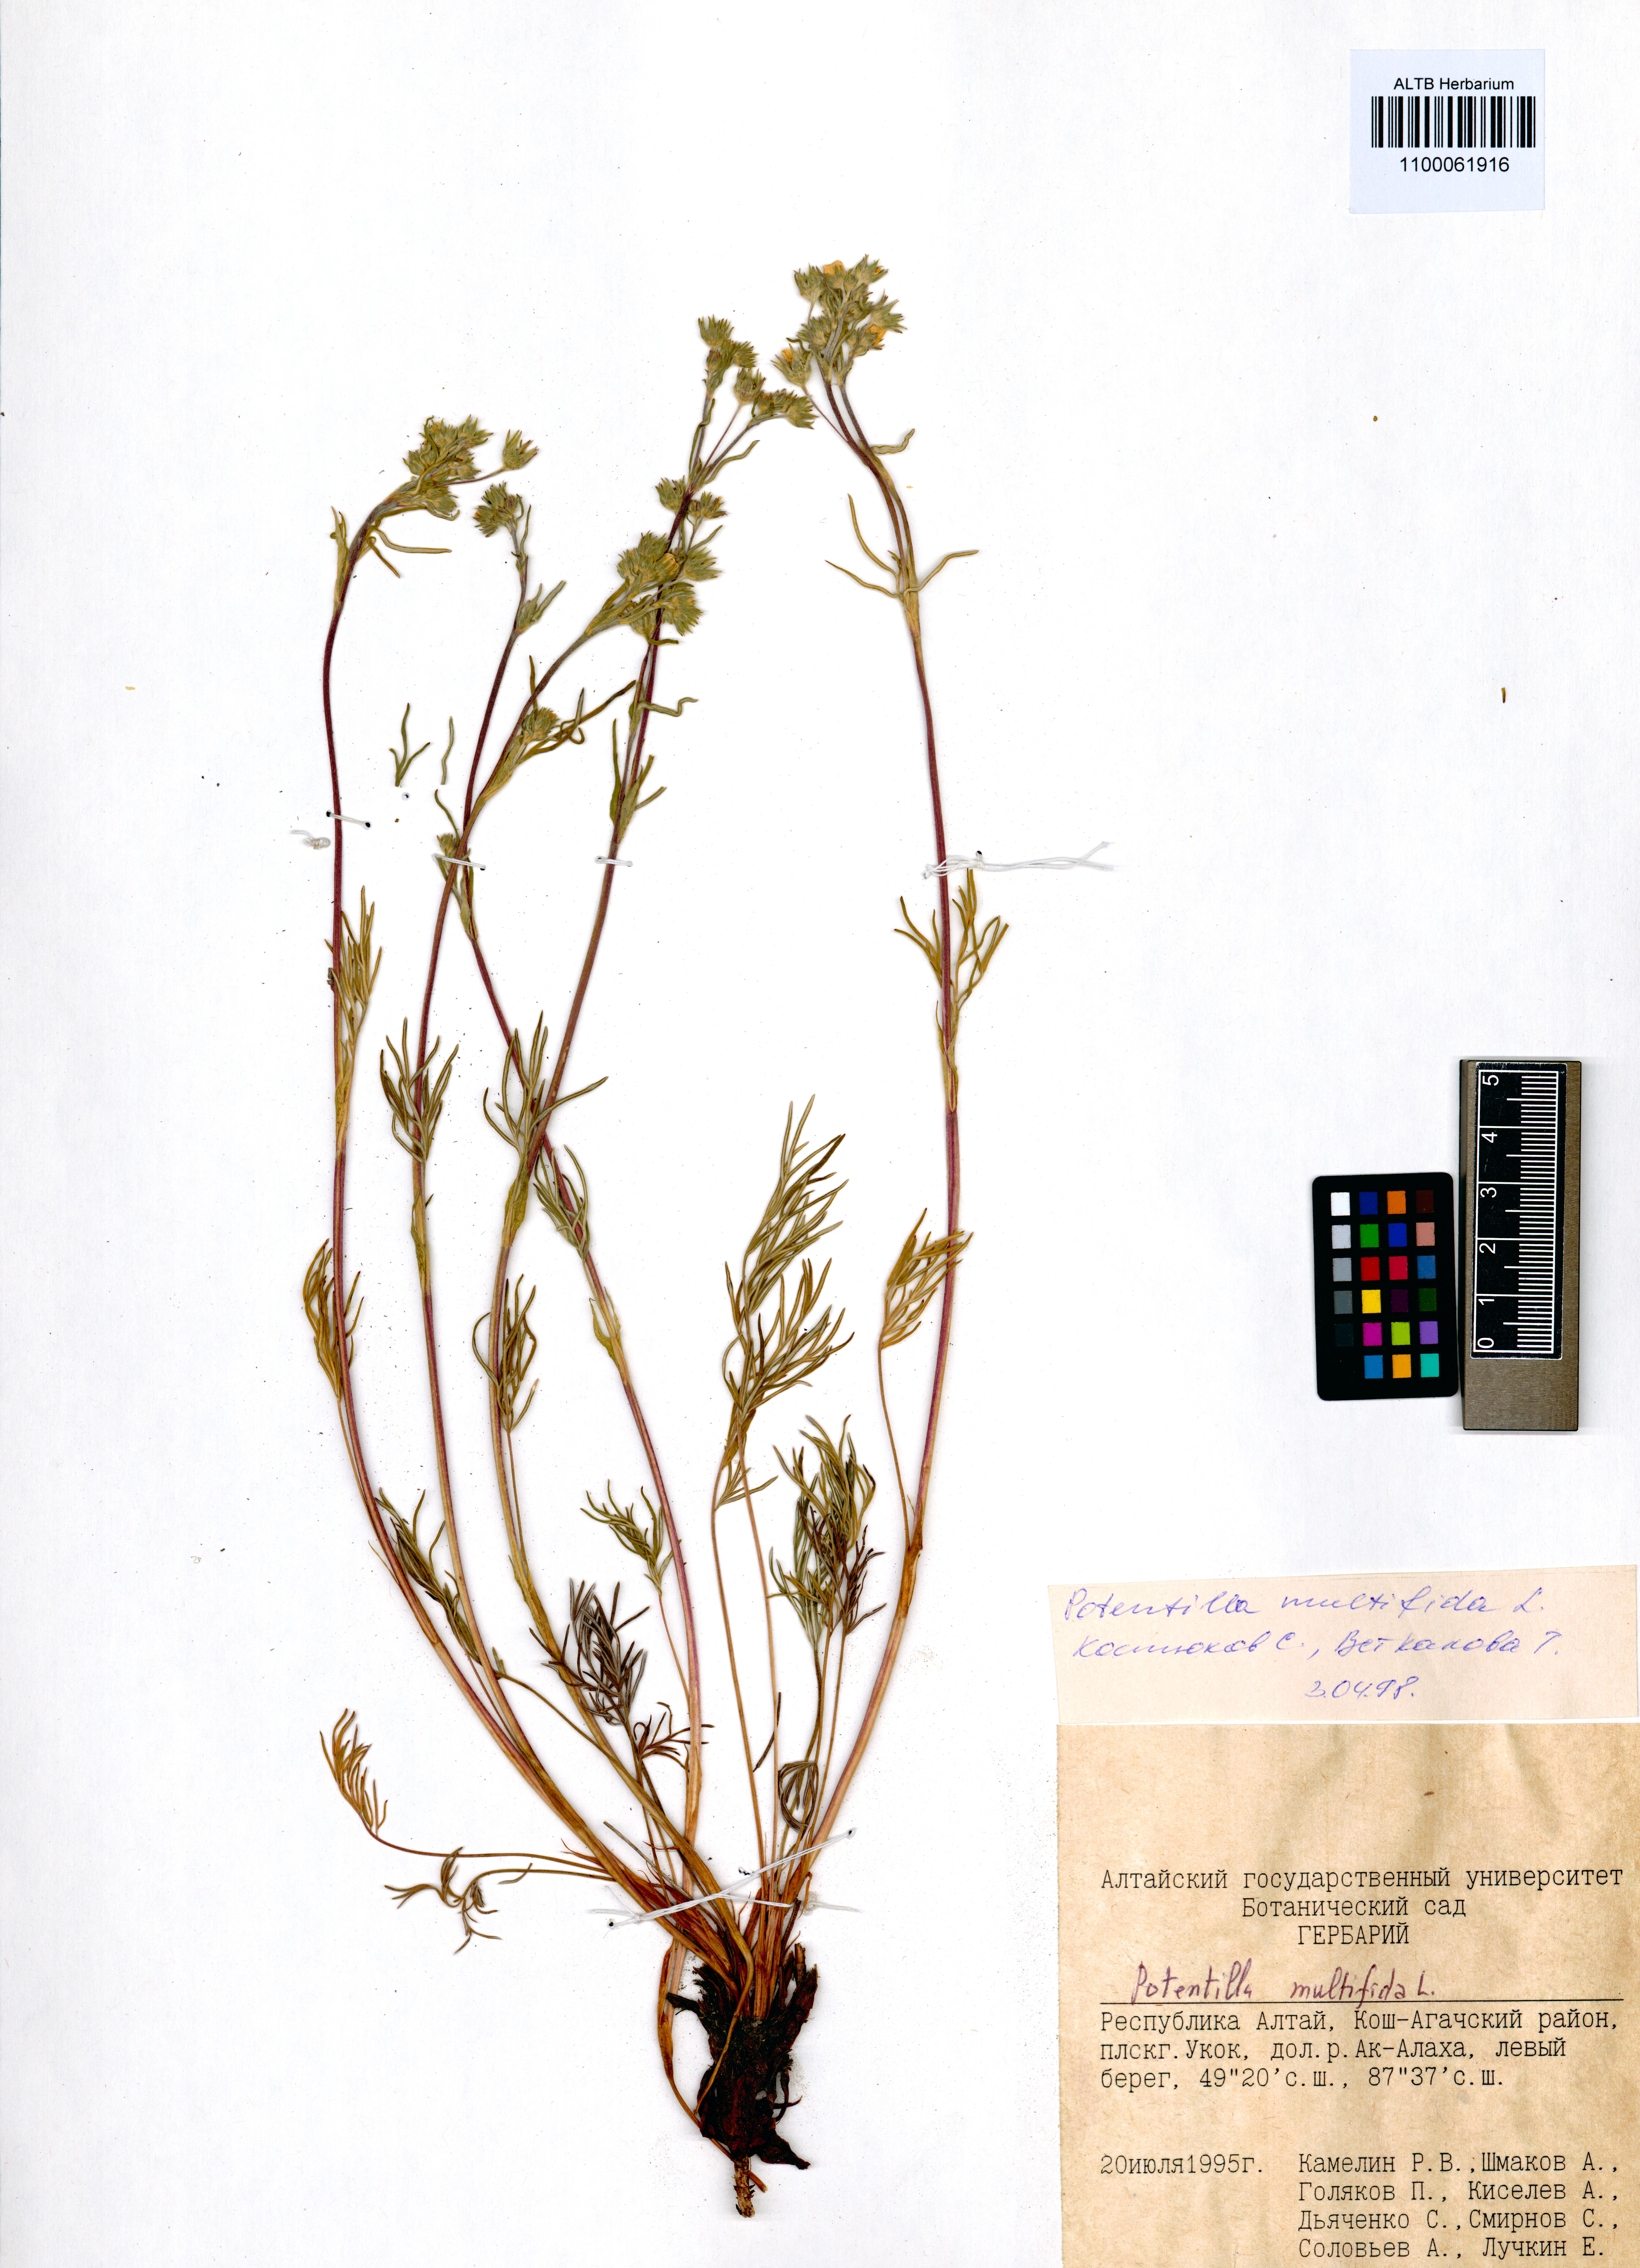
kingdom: Plantae
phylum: Tracheophyta
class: Magnoliopsida
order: Rosales
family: Rosaceae
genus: Potentilla
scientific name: Potentilla multifida
